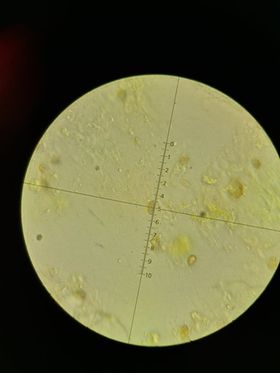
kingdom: Fungi
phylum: Basidiomycota
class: Agaricomycetes
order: Agaricales
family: Cortinariaceae
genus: Cortinarius
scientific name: Cortinarius uliginosus
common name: mose-slørhat
